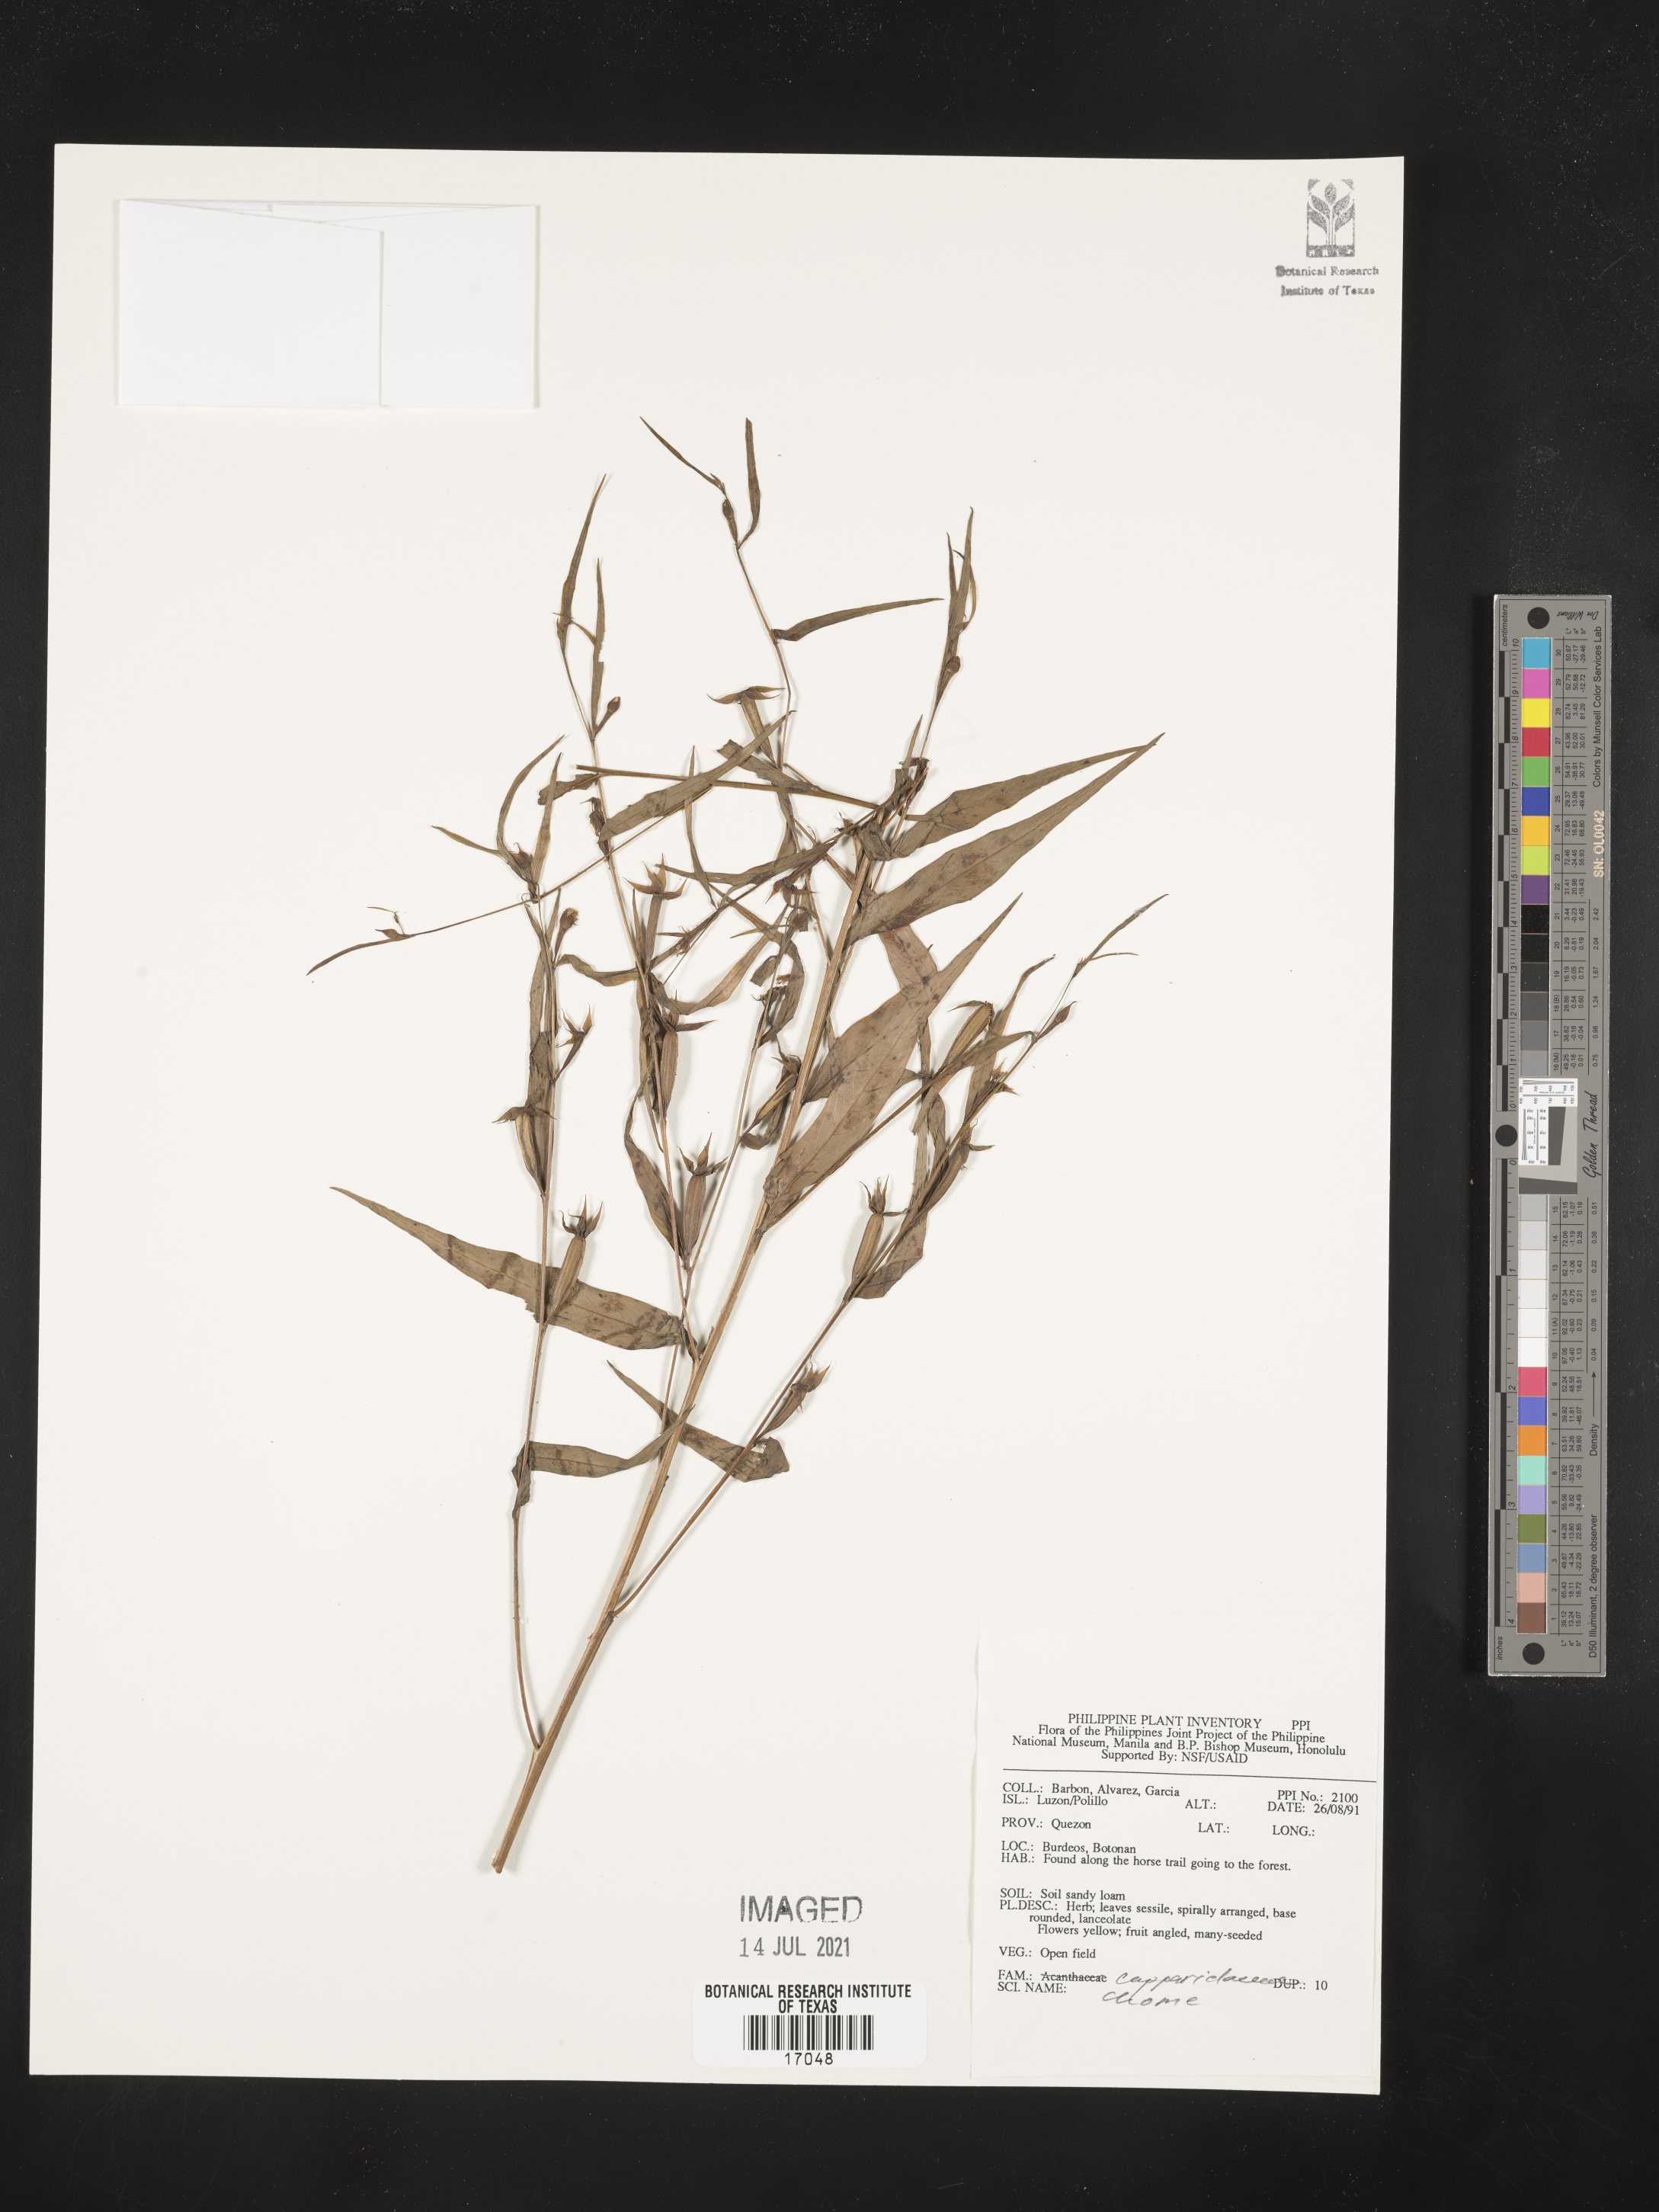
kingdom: Plantae
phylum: Tracheophyta
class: Magnoliopsida
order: Brassicales
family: Cleomaceae
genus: Cleome
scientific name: Cleome
